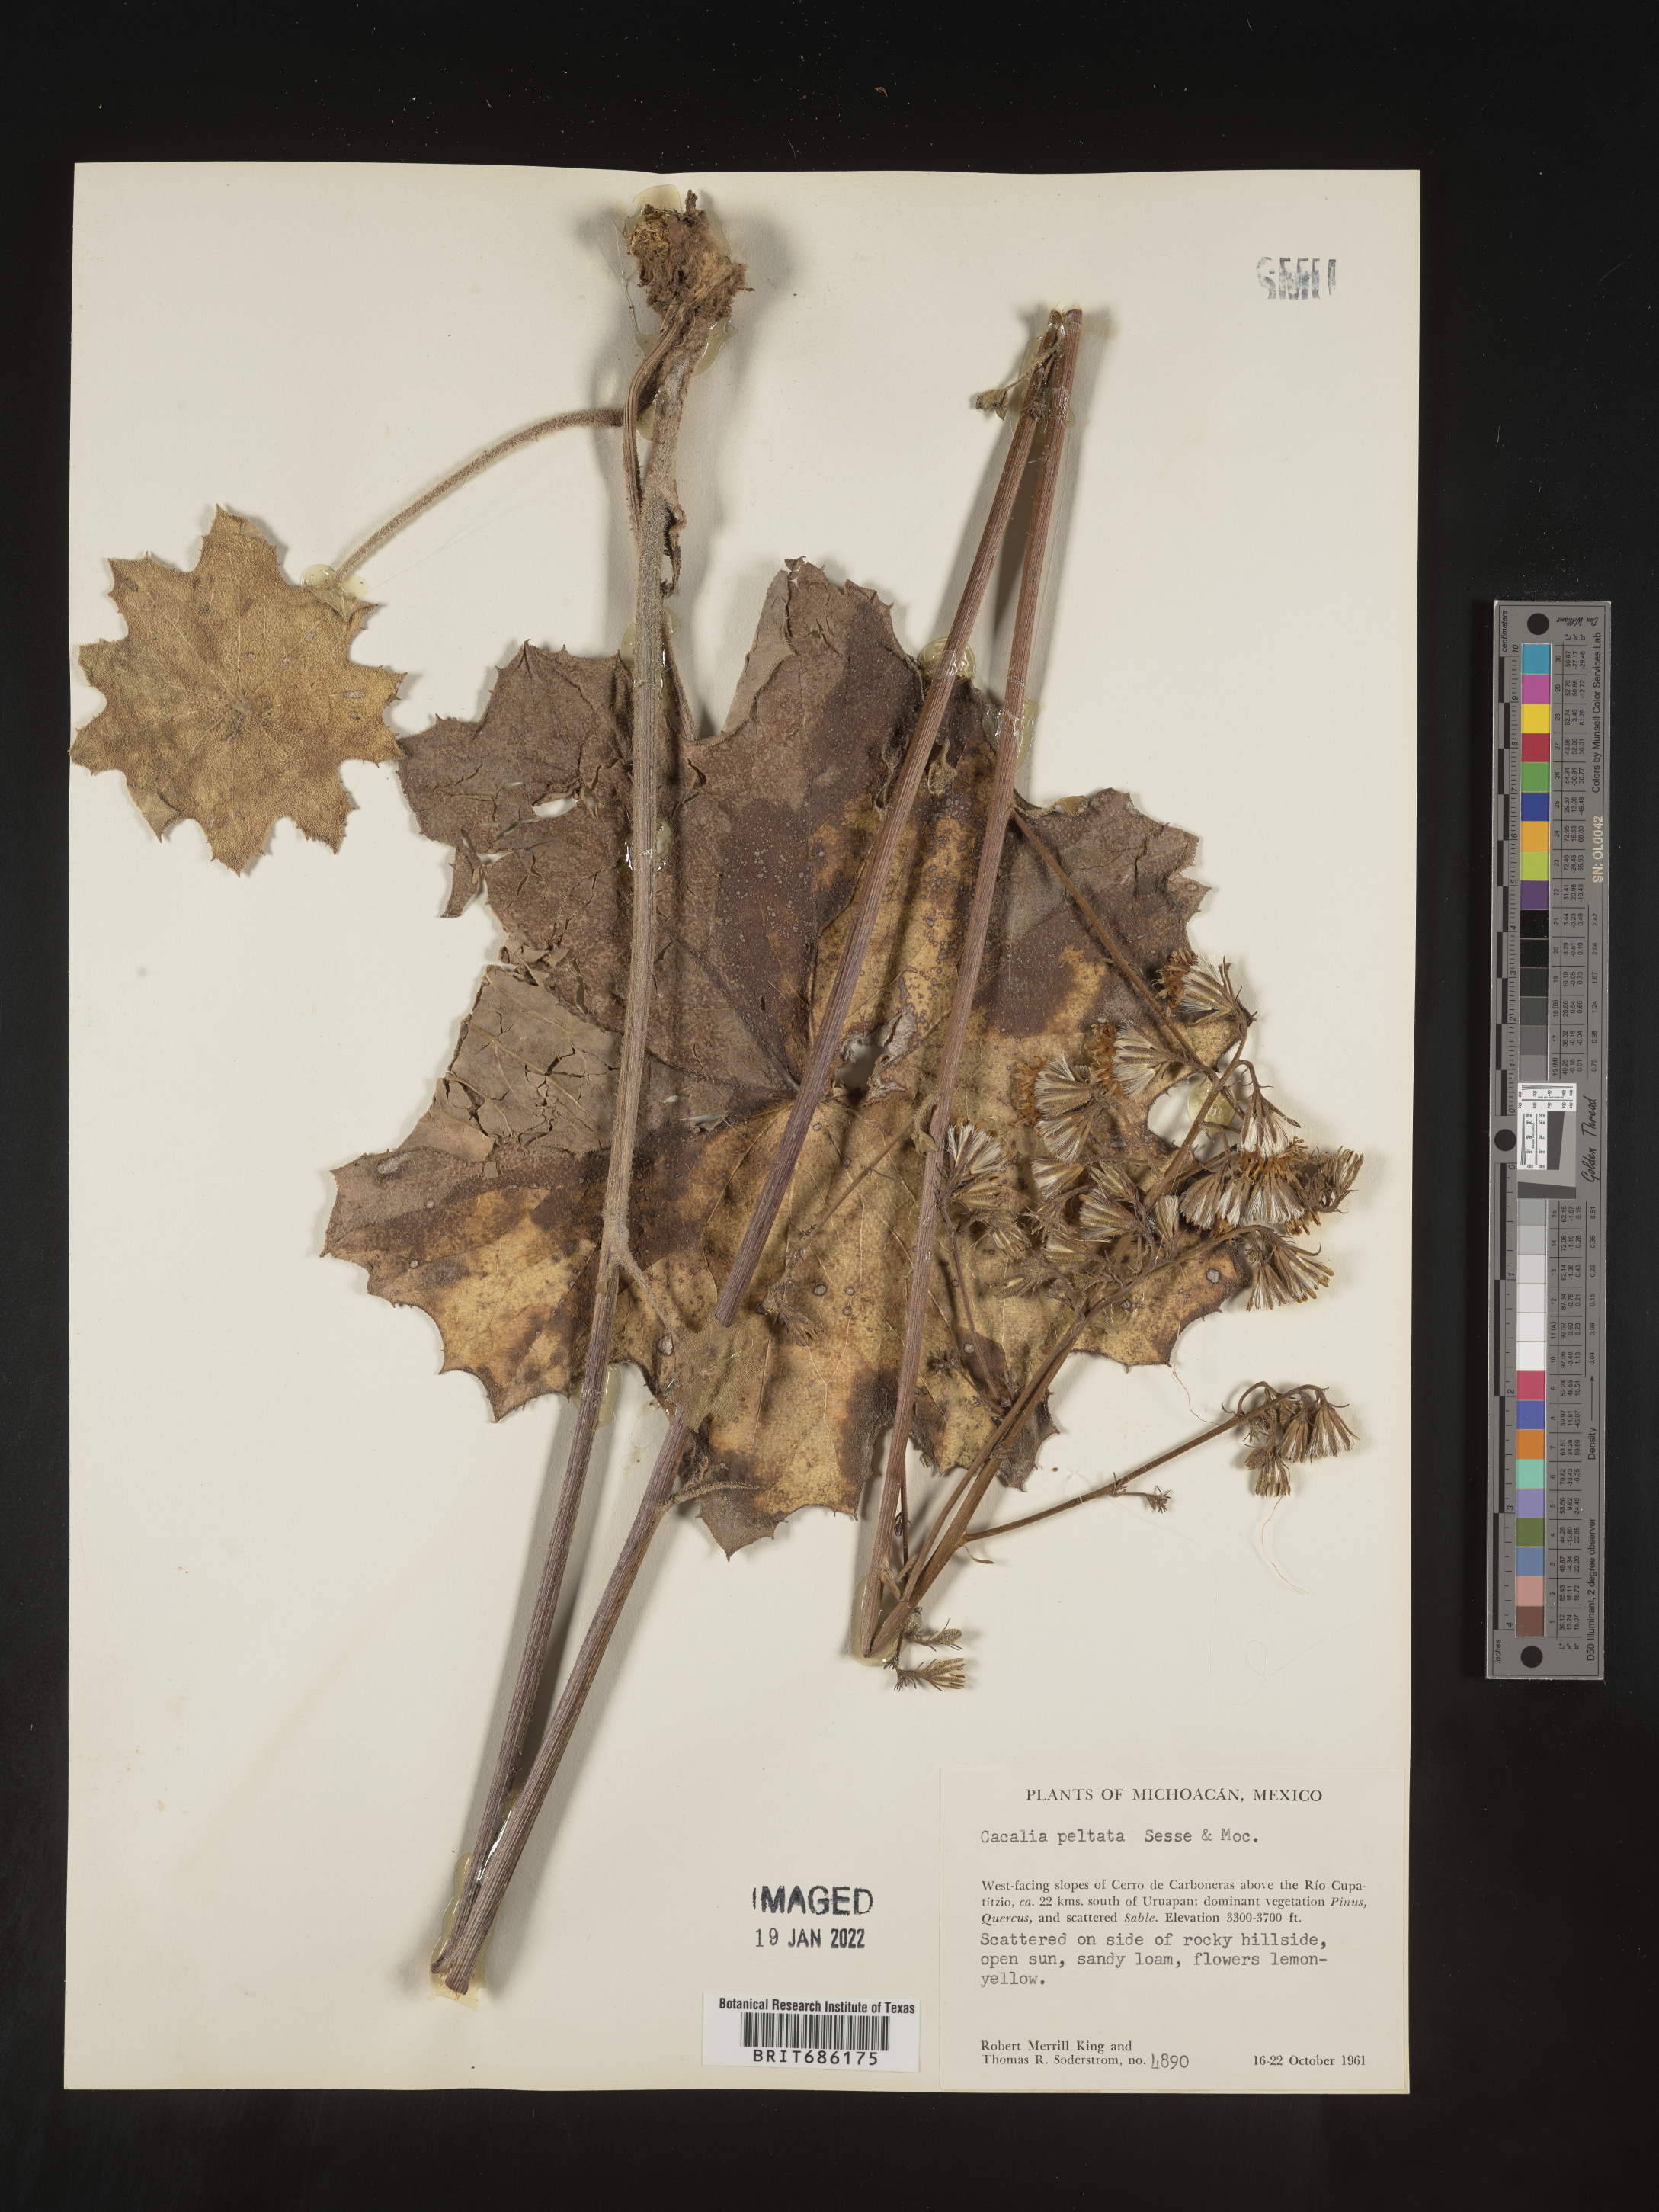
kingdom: Plantae
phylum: Tracheophyta
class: Magnoliopsida
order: Asterales
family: Asteraceae
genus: Cacalia
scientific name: Cacalia
